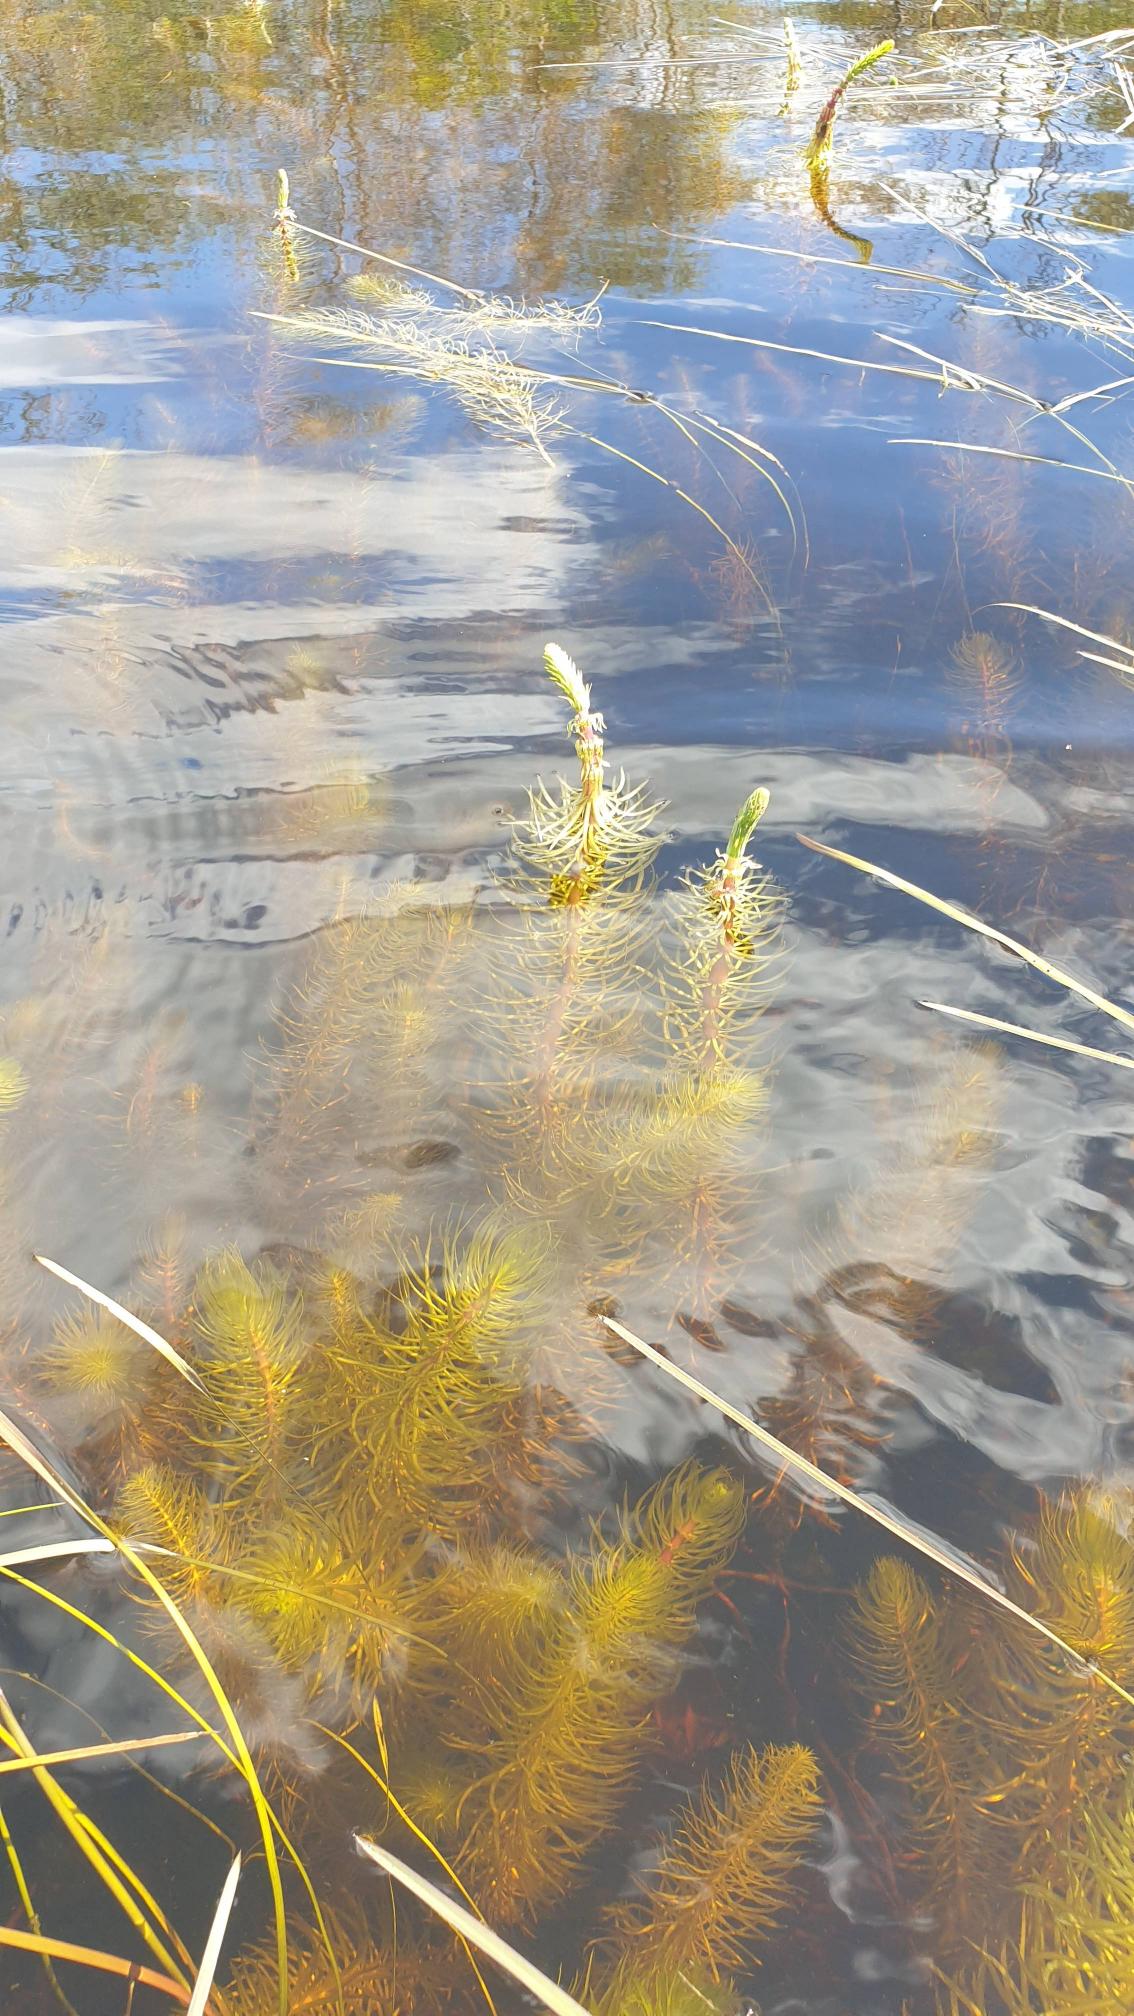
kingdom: Plantae
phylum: Tracheophyta
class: Magnoliopsida
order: Lamiales
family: Plantaginaceae
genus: Hippuris
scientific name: Hippuris vulgaris
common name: Vandspir
